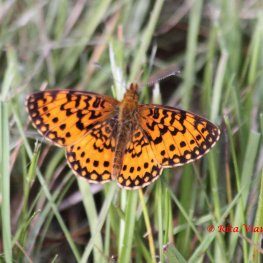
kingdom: Animalia
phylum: Arthropoda
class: Insecta
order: Lepidoptera
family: Nymphalidae
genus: Boloria
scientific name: Boloria selene
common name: Silver-bordered Fritillary
